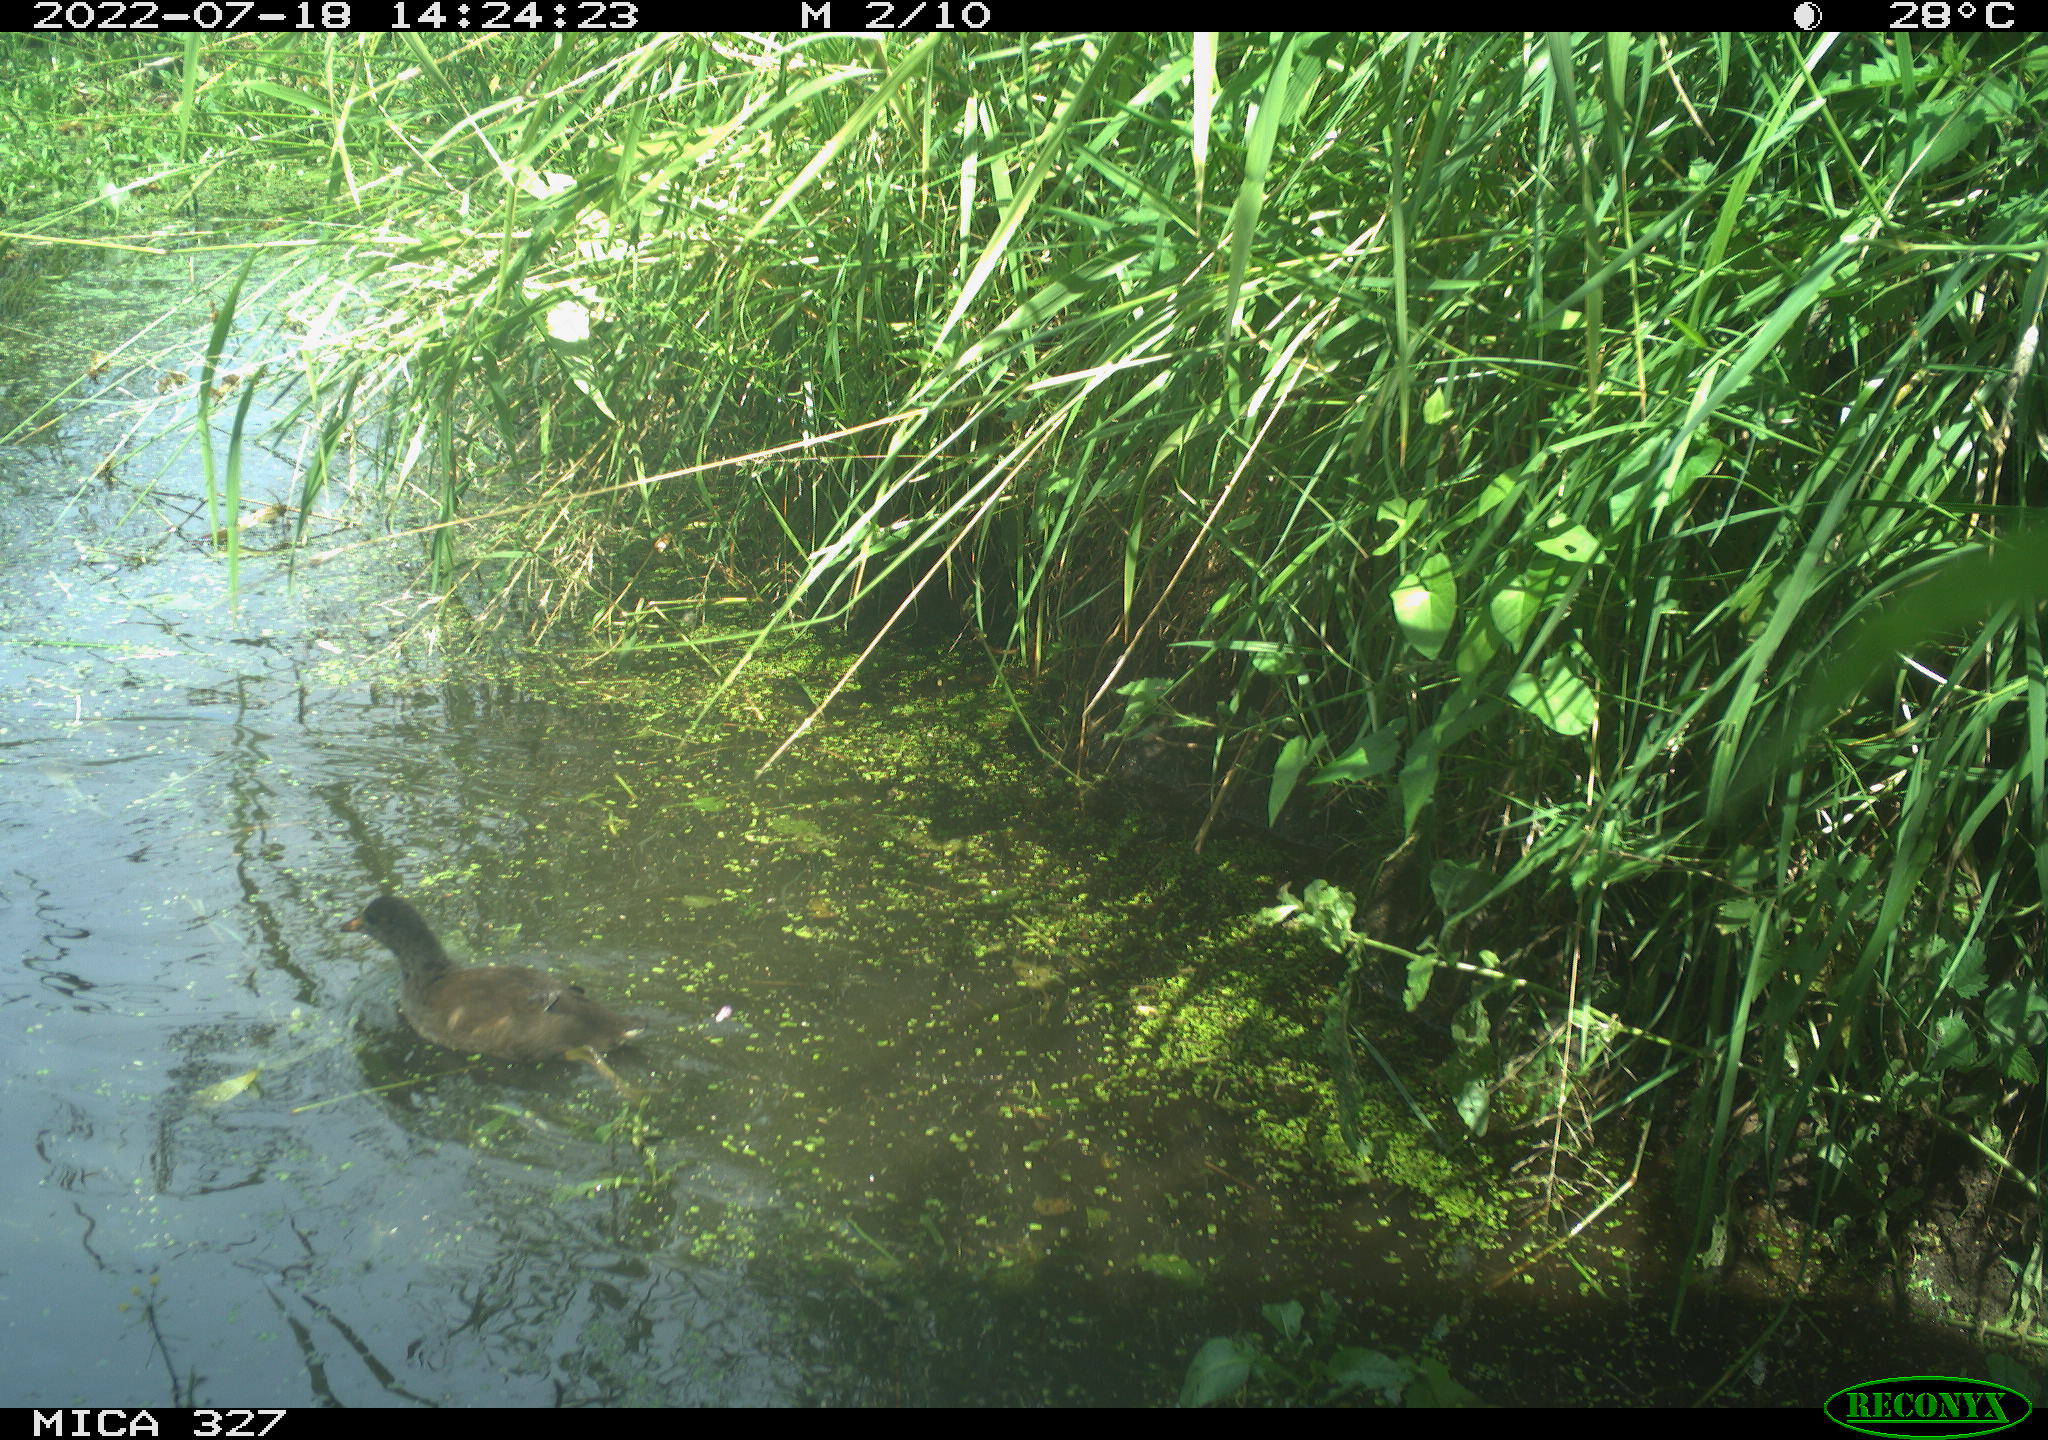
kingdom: Animalia
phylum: Chordata
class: Aves
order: Gruiformes
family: Rallidae
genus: Gallinula
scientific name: Gallinula chloropus
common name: Common moorhen
